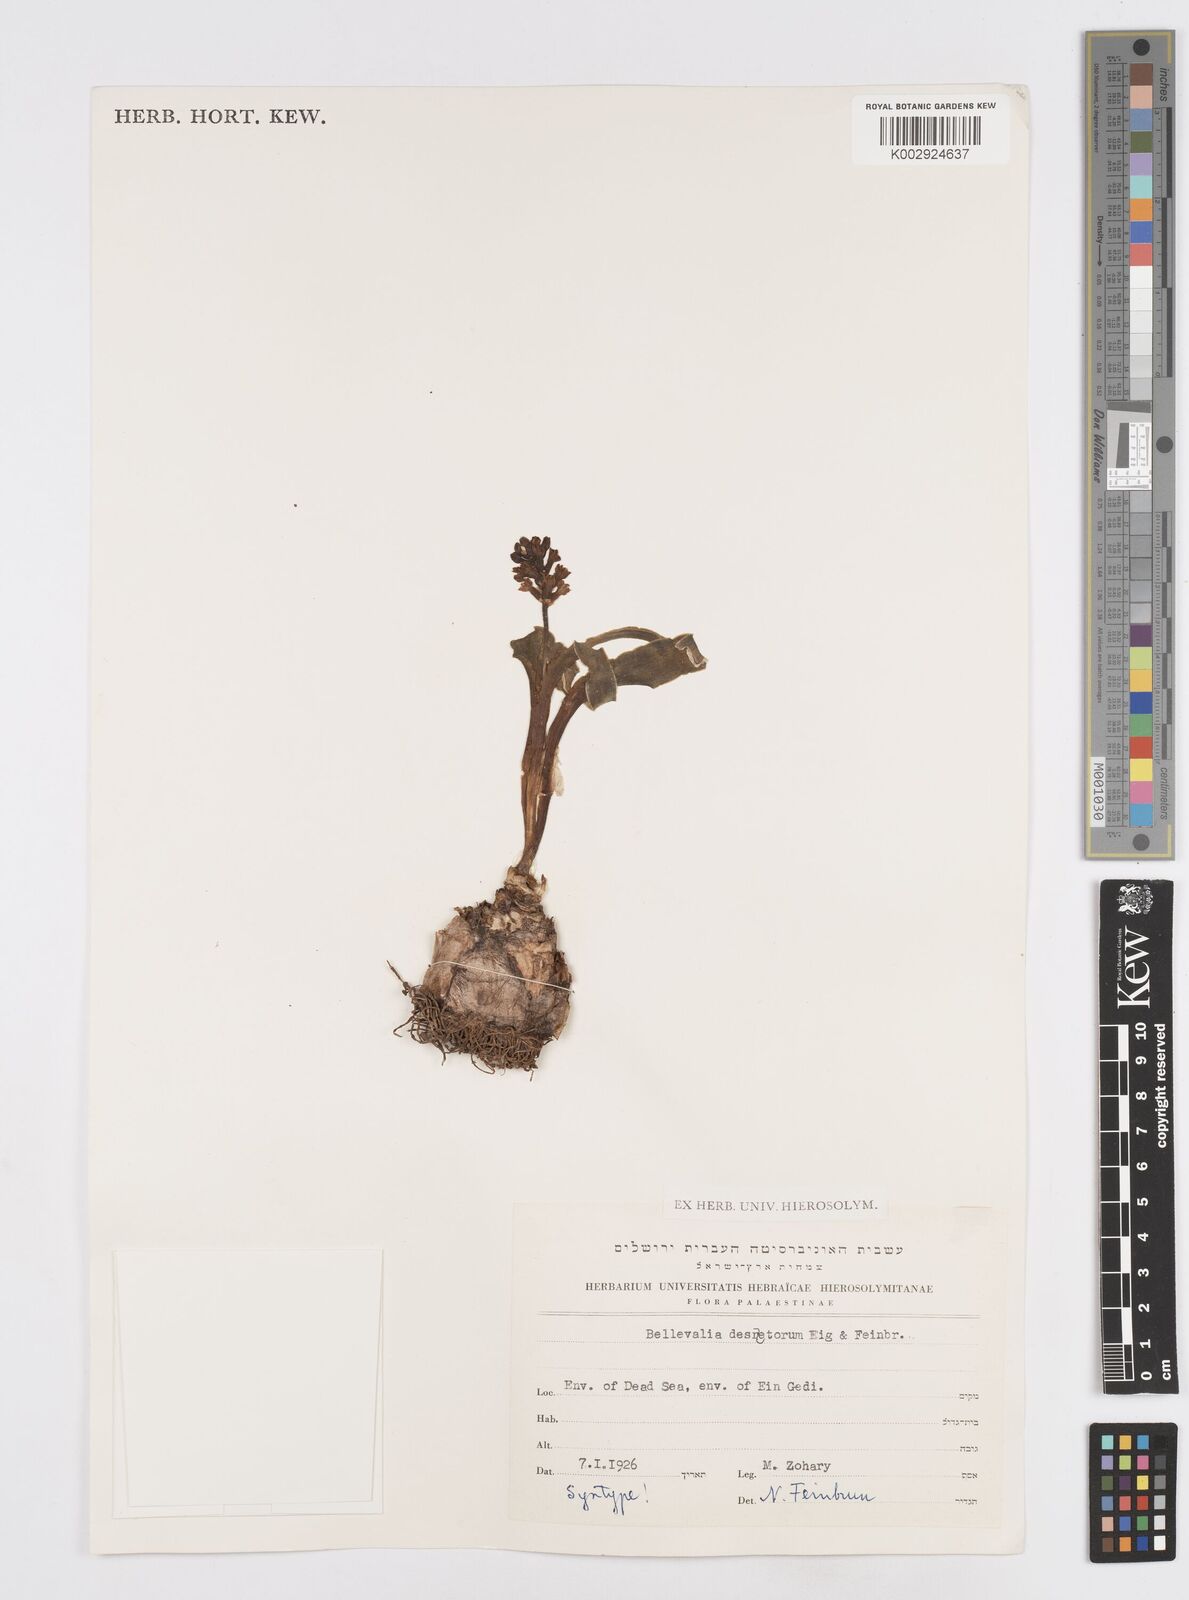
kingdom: Plantae
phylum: Tracheophyta
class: Liliopsida
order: Asparagales
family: Asparagaceae
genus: Bellevalia
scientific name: Bellevalia desertorum
